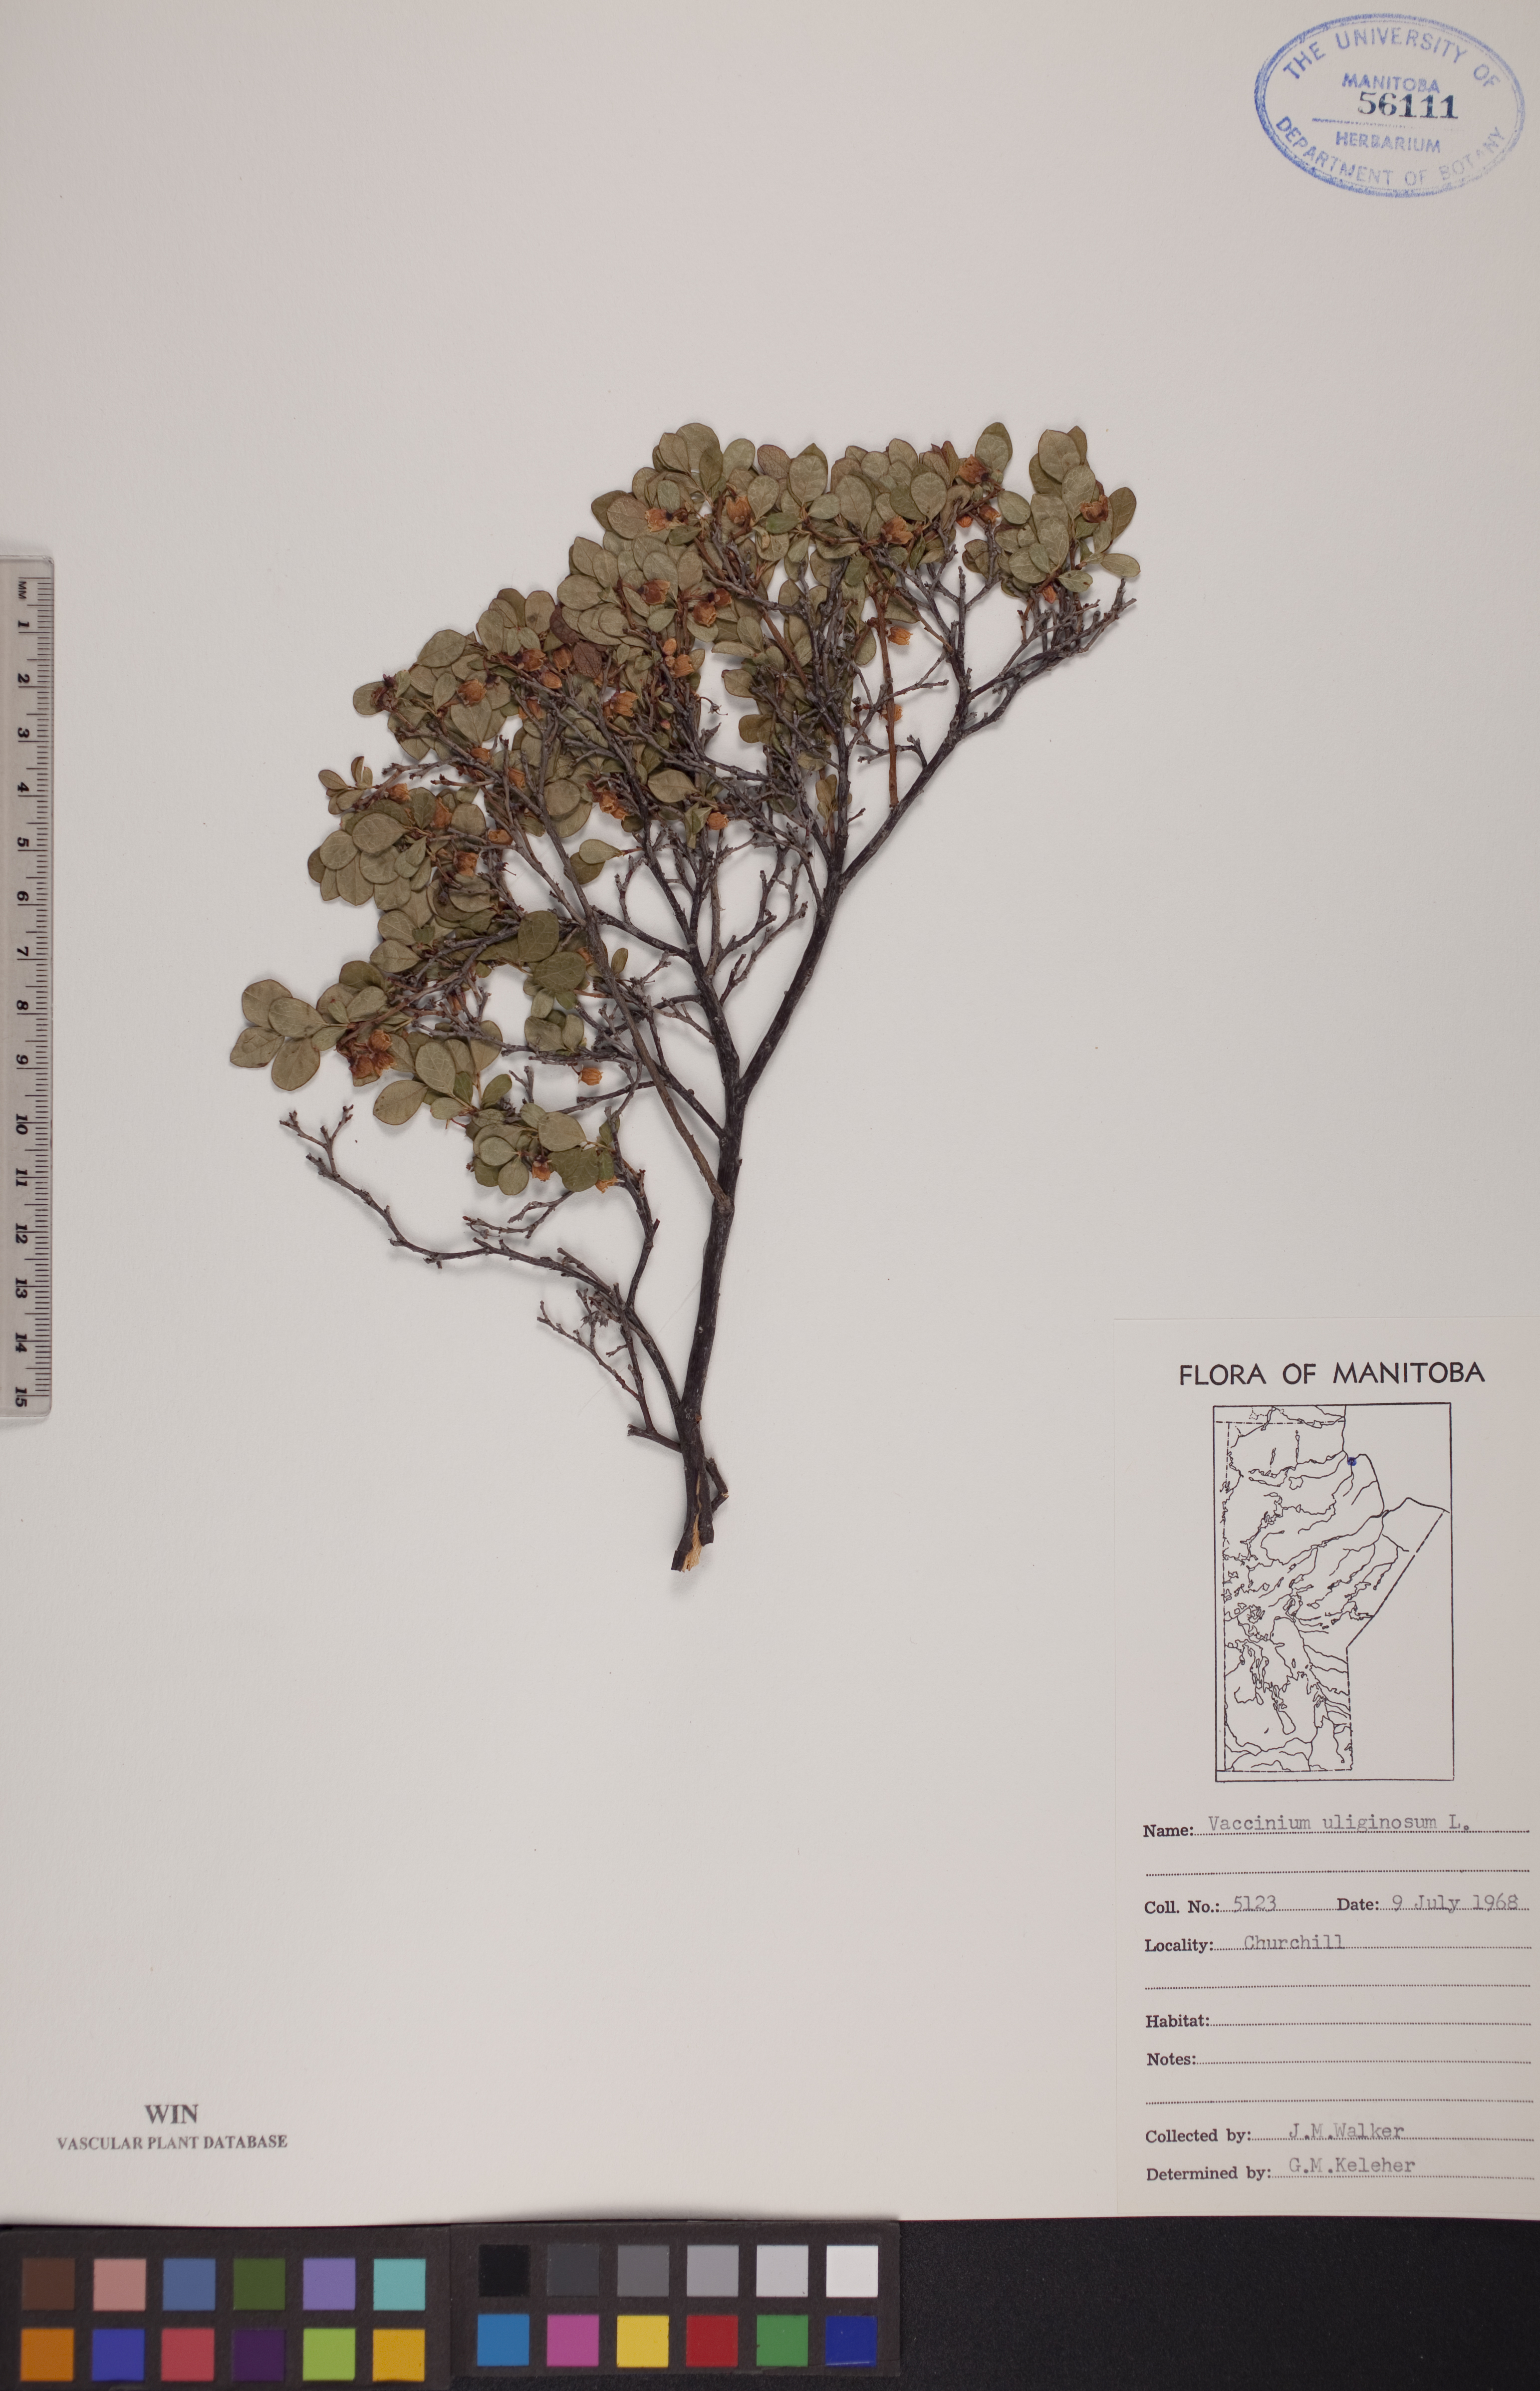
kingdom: Plantae
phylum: Tracheophyta
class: Magnoliopsida
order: Ericales
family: Ericaceae
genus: Vaccinium
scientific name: Vaccinium uliginosum
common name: Bog bilberry
